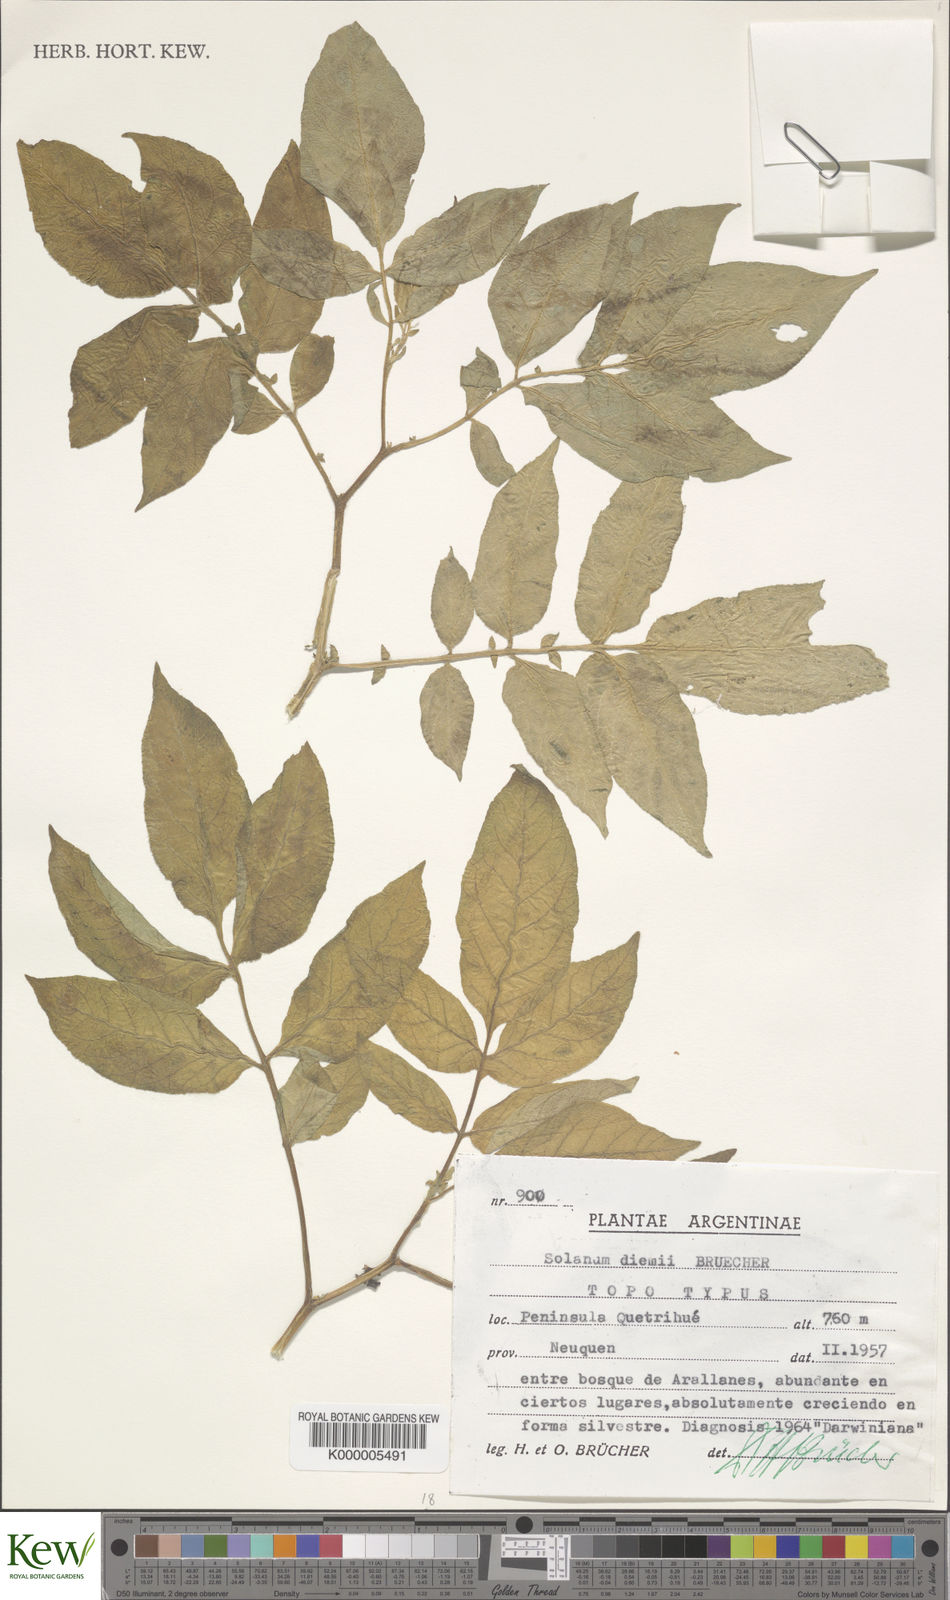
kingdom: Plantae
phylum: Tracheophyta
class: Magnoliopsida
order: Solanales
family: Solanaceae
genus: Solanum
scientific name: Solanum
